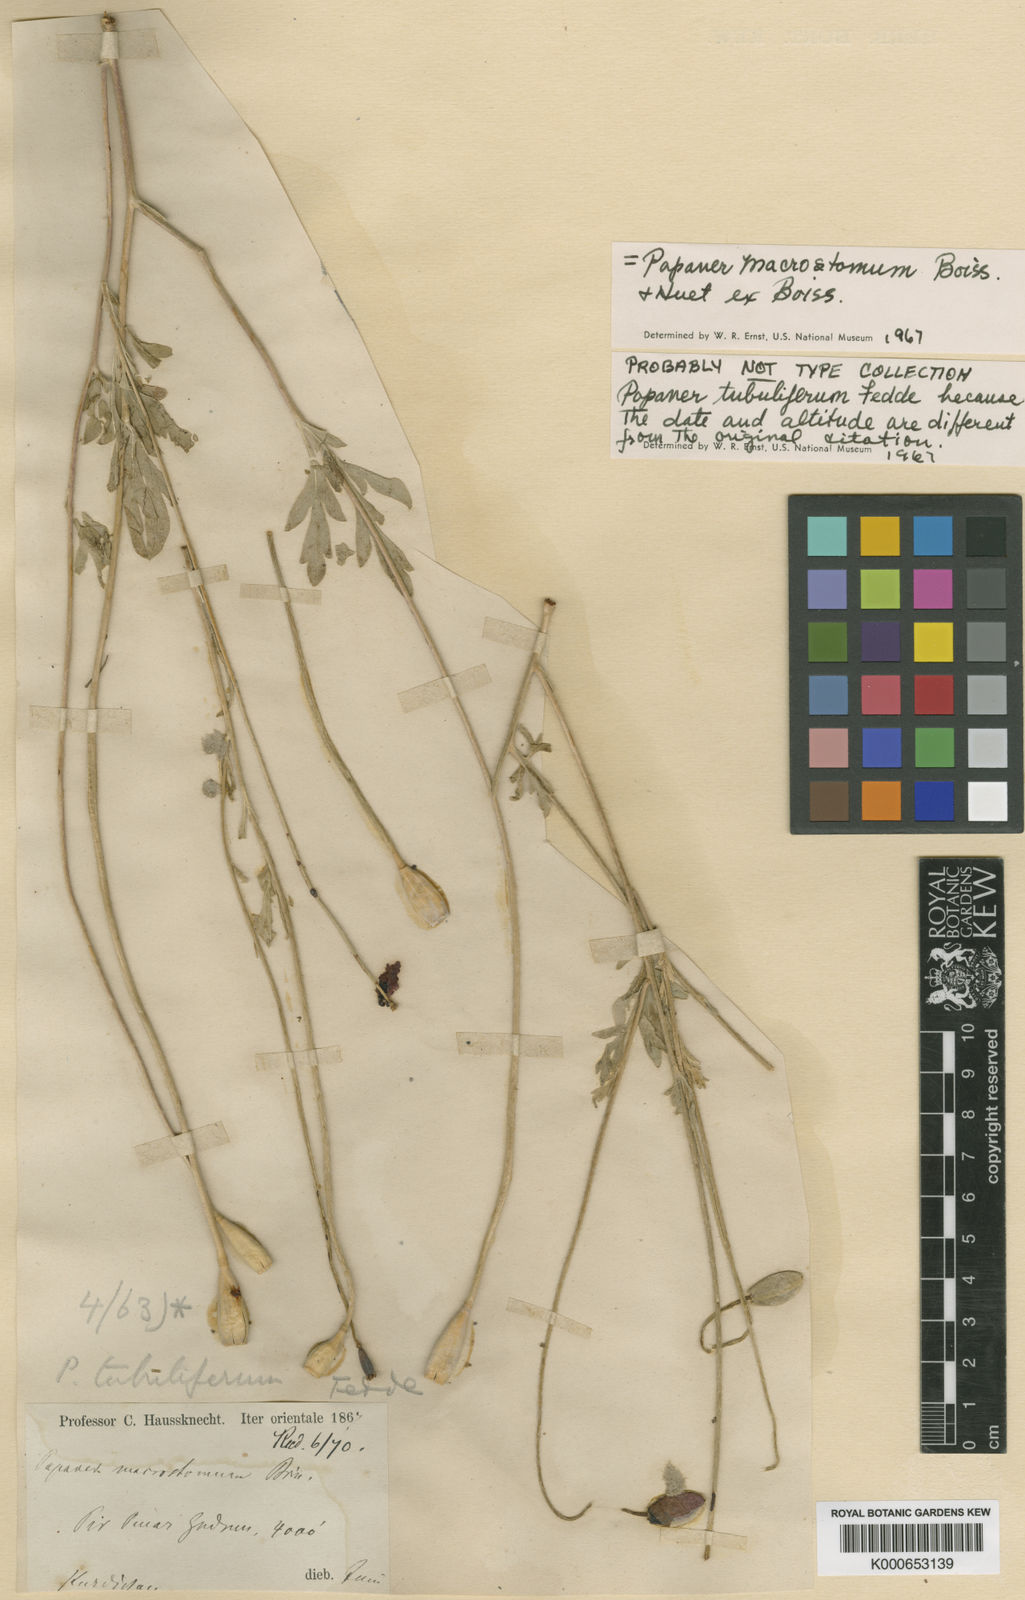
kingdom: Plantae
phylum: Tracheophyta
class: Magnoliopsida
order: Ranunculales
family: Papaveraceae
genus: Papaver
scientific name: Papaver macrostomum
